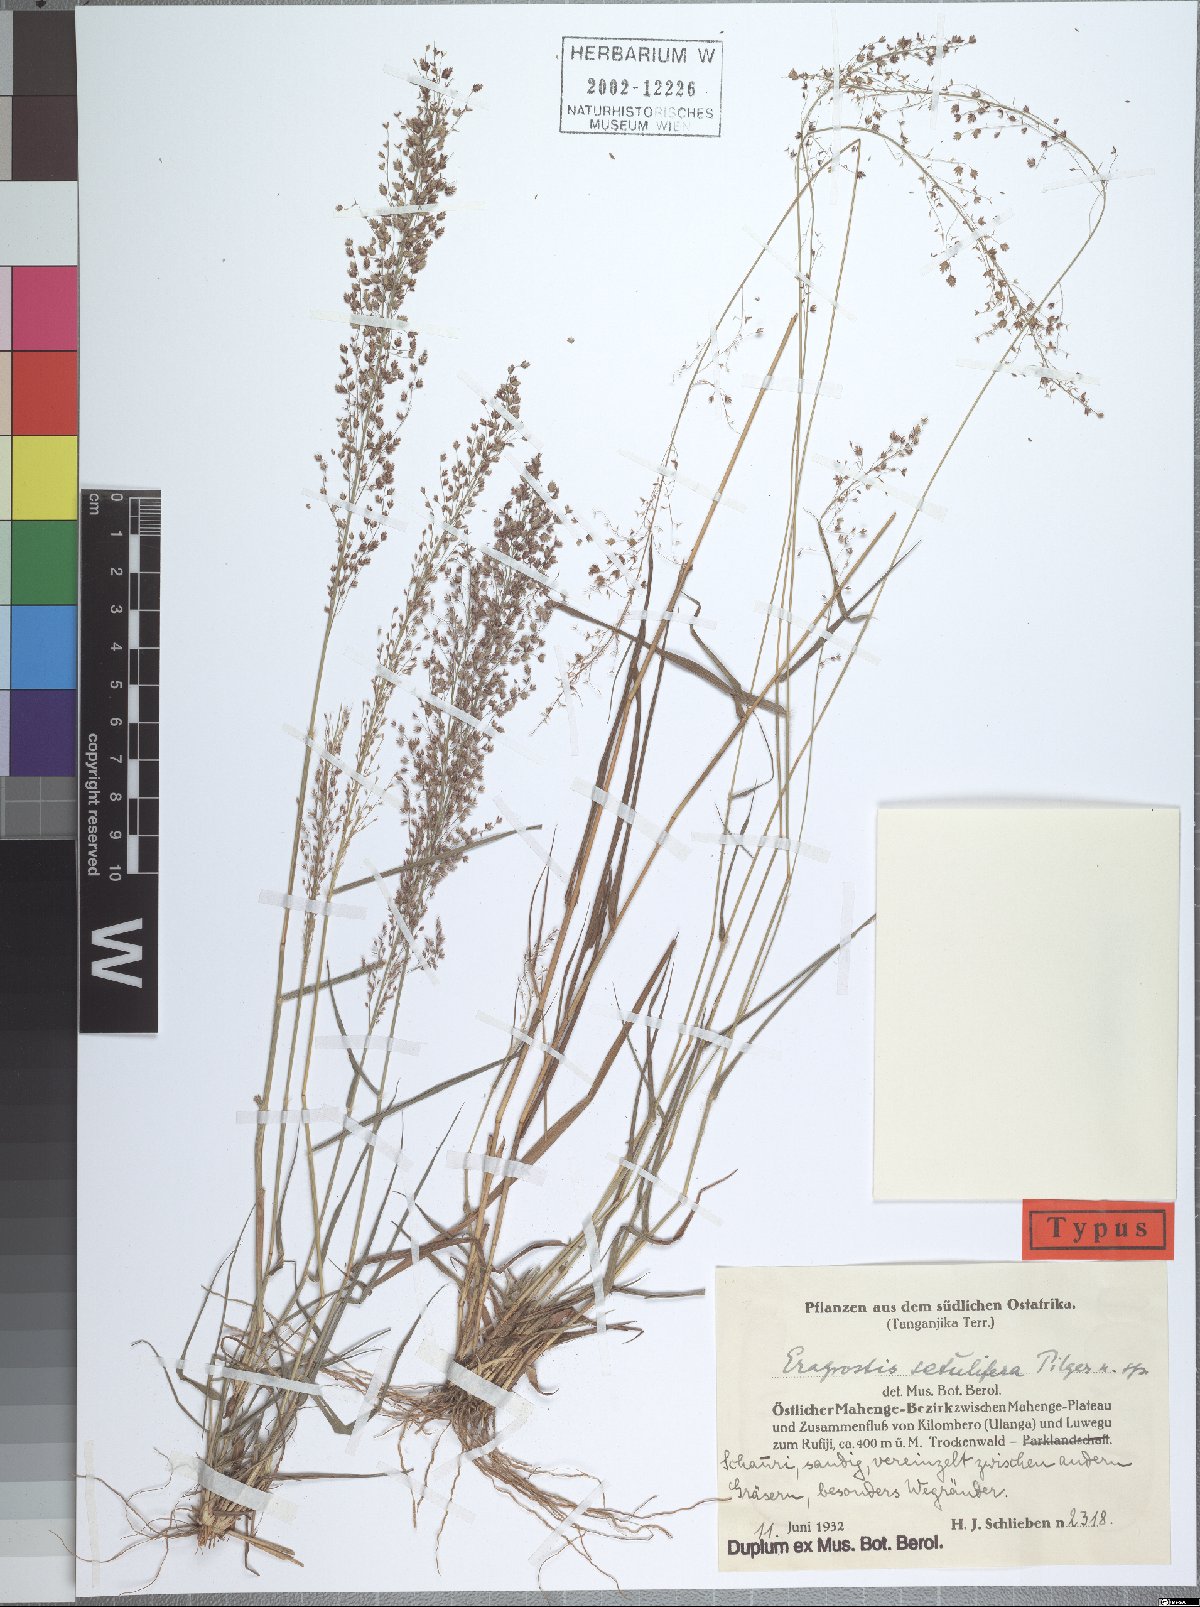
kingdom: Plantae
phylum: Tracheophyta
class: Liliopsida
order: Poales
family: Poaceae
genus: Eragrostis
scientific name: Eragrostis setulifera
